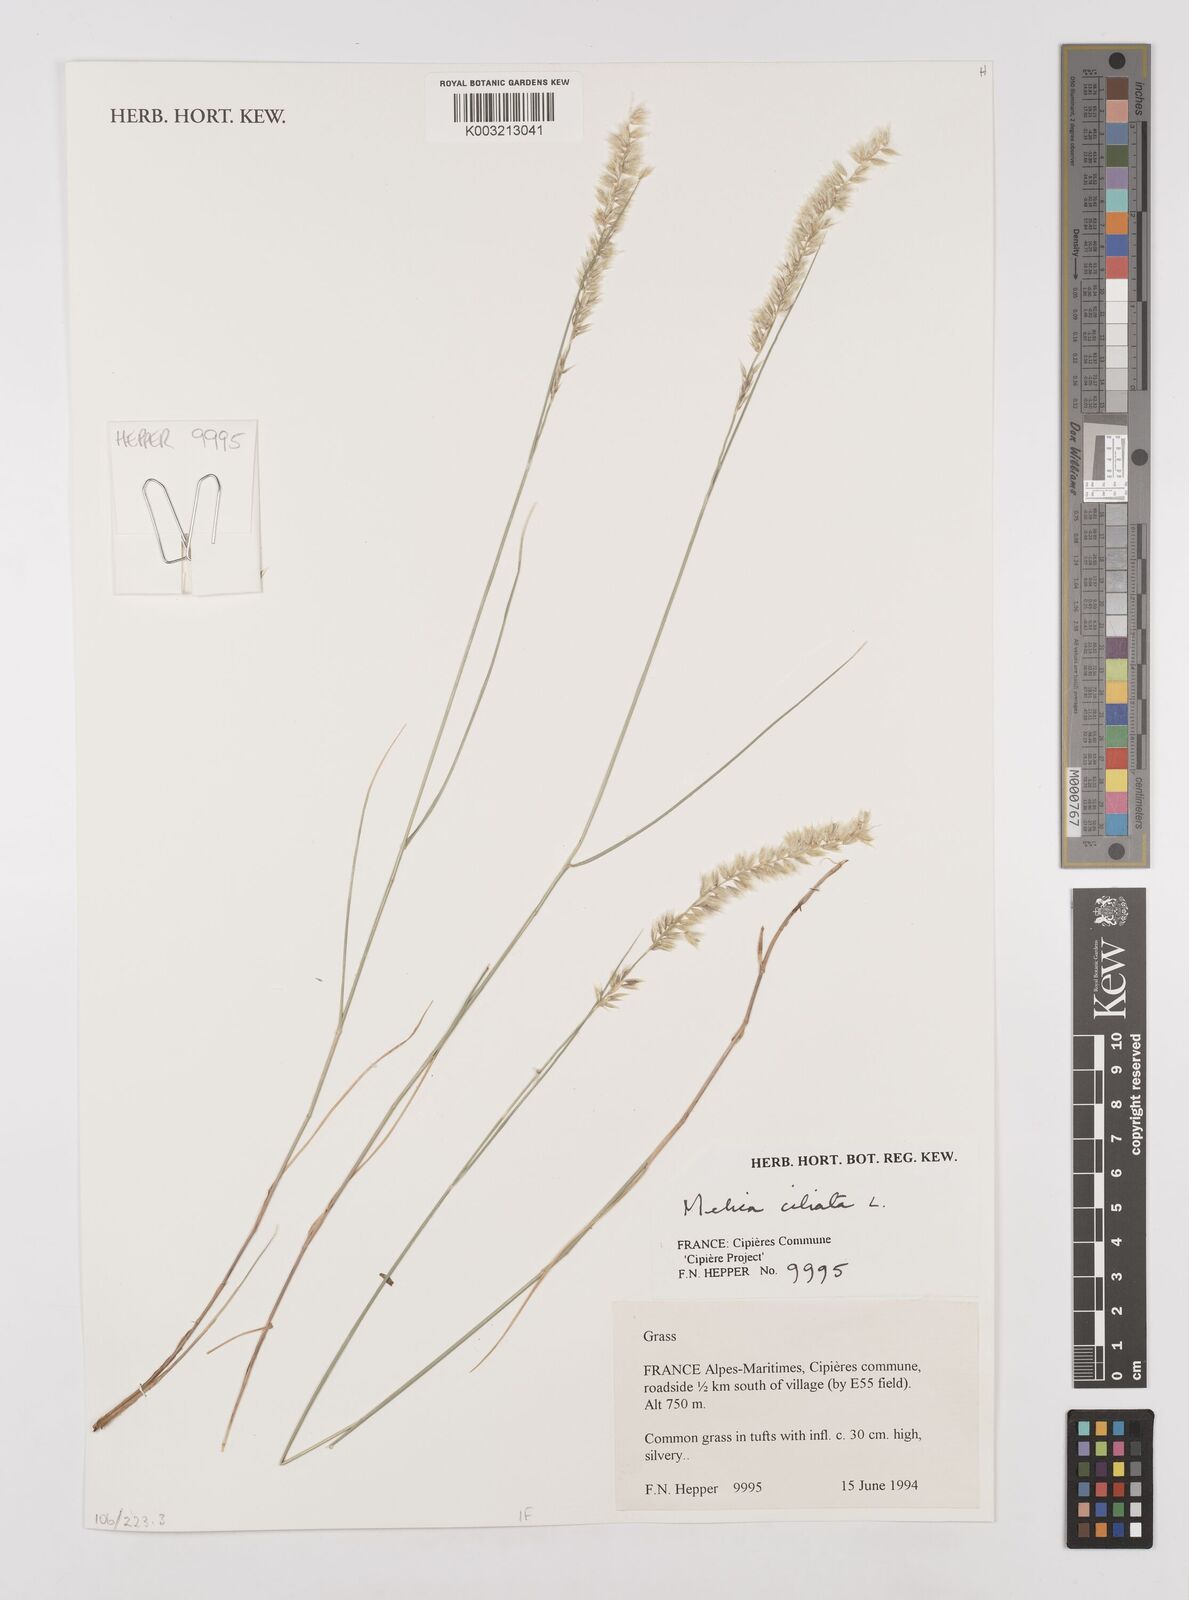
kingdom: Plantae
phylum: Tracheophyta
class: Liliopsida
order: Poales
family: Poaceae
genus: Melica
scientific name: Melica ciliata
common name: Hairy melicgrass
